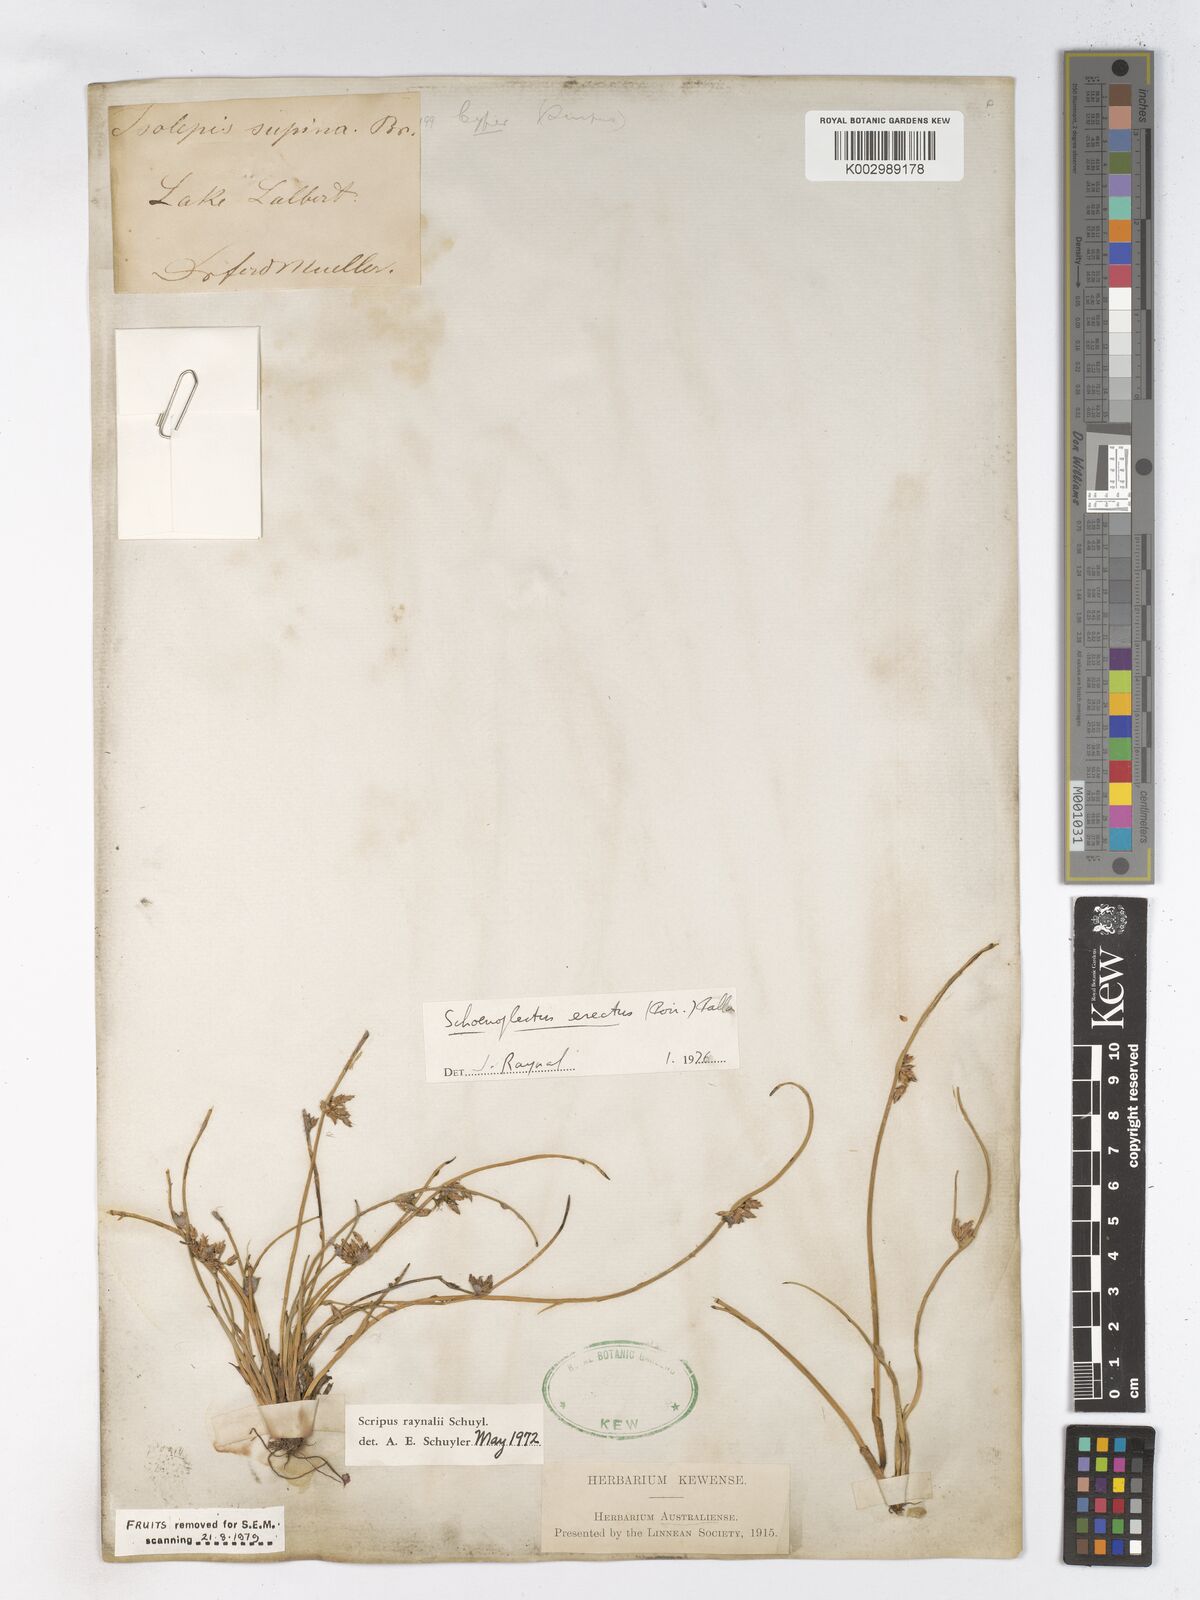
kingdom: Plantae
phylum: Tracheophyta
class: Liliopsida
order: Poales
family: Cyperaceae
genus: Schoenoplectiella
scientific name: Schoenoplectiella erecta
